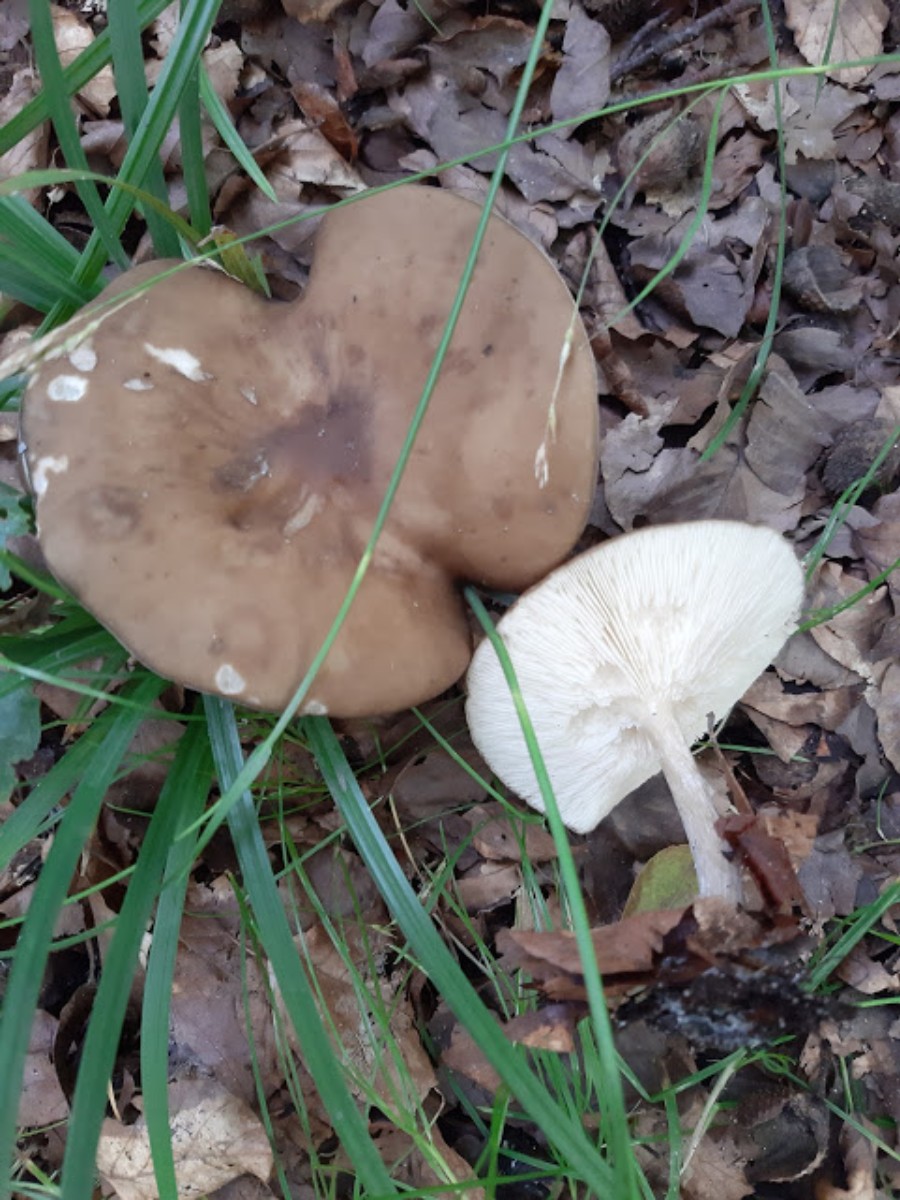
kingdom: Fungi
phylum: Basidiomycota
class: Agaricomycetes
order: Agaricales
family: Tricholomataceae
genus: Melanoleuca
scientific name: Melanoleuca
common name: munkehat
